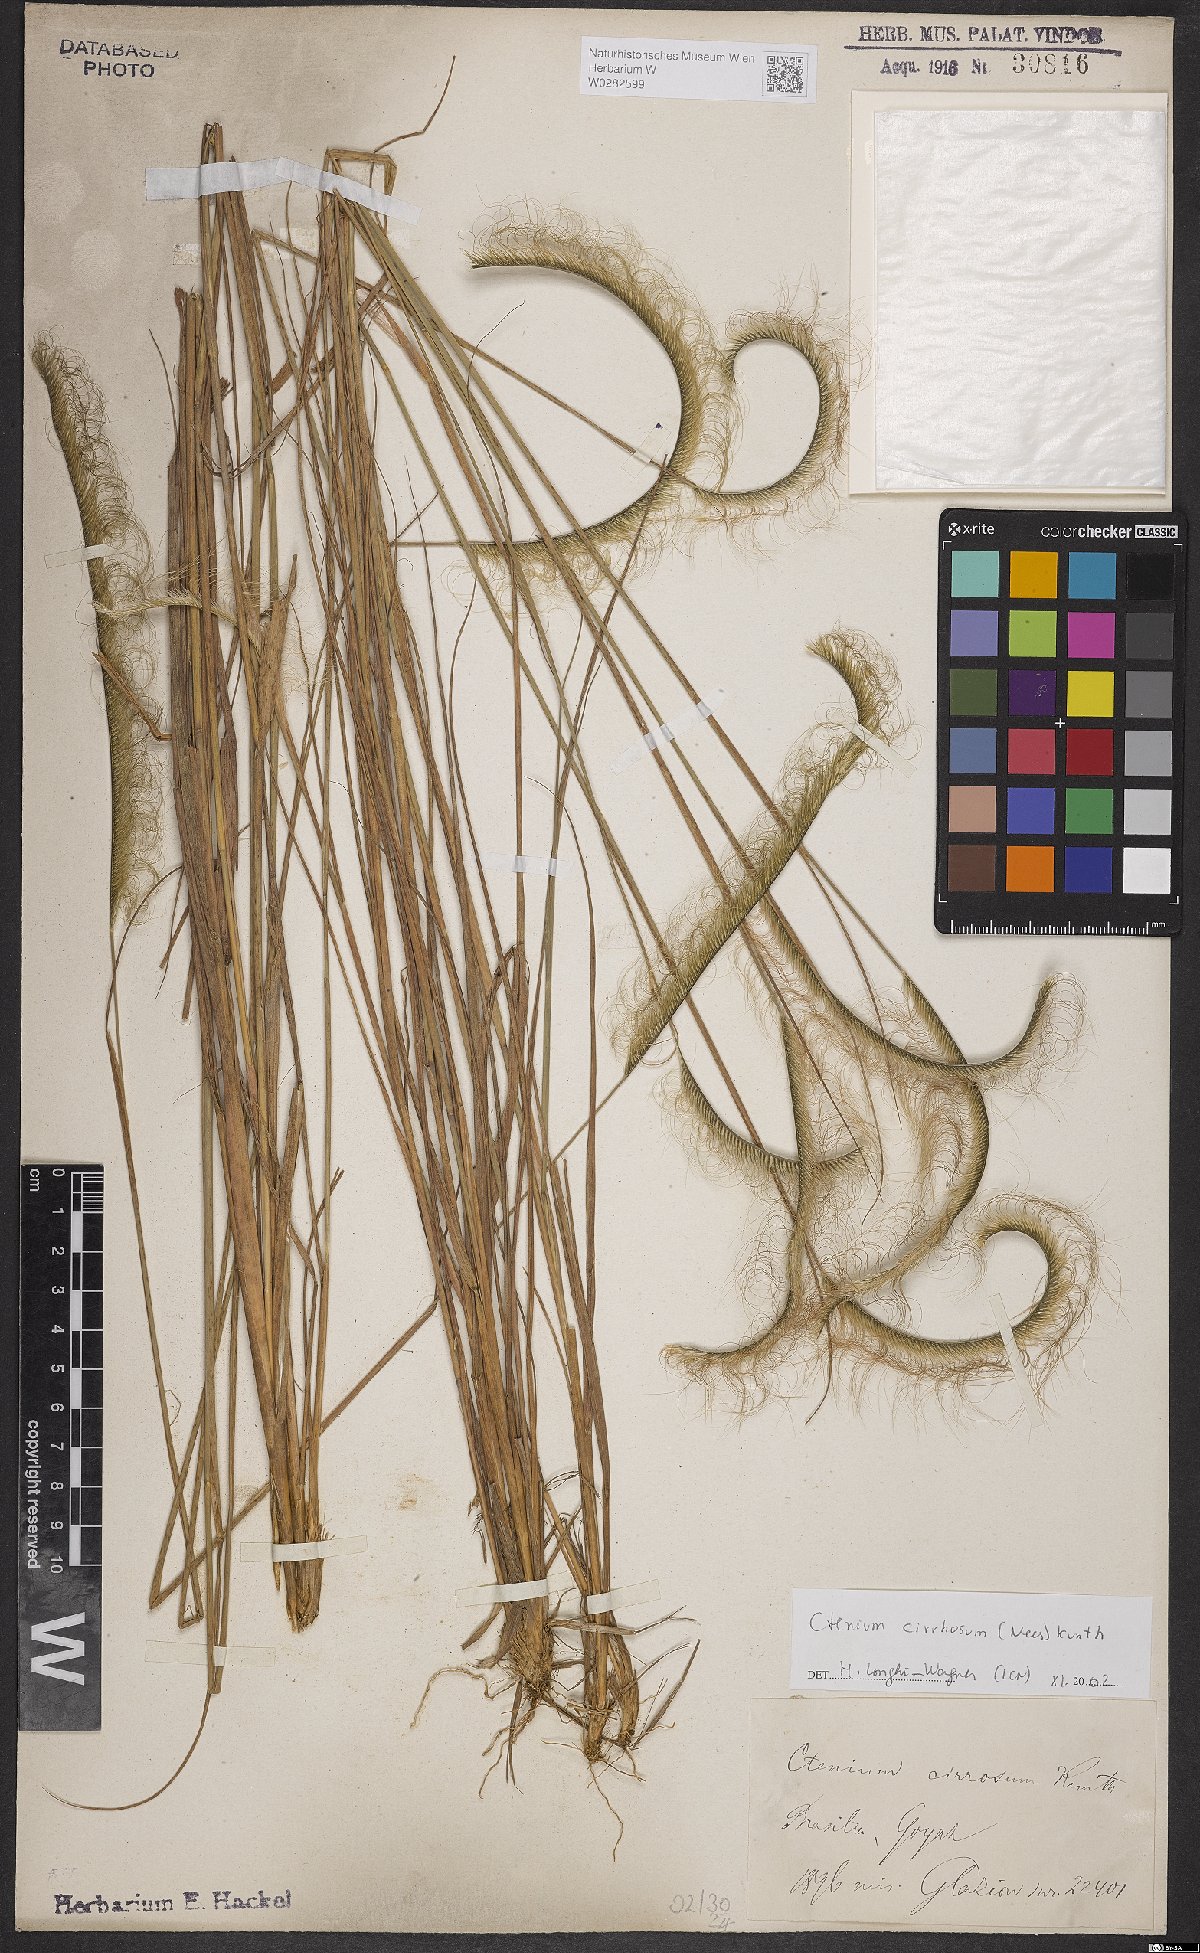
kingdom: Plantae
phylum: Tracheophyta
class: Liliopsida
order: Poales
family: Poaceae
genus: Ctenium
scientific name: Ctenium cirrhosum
